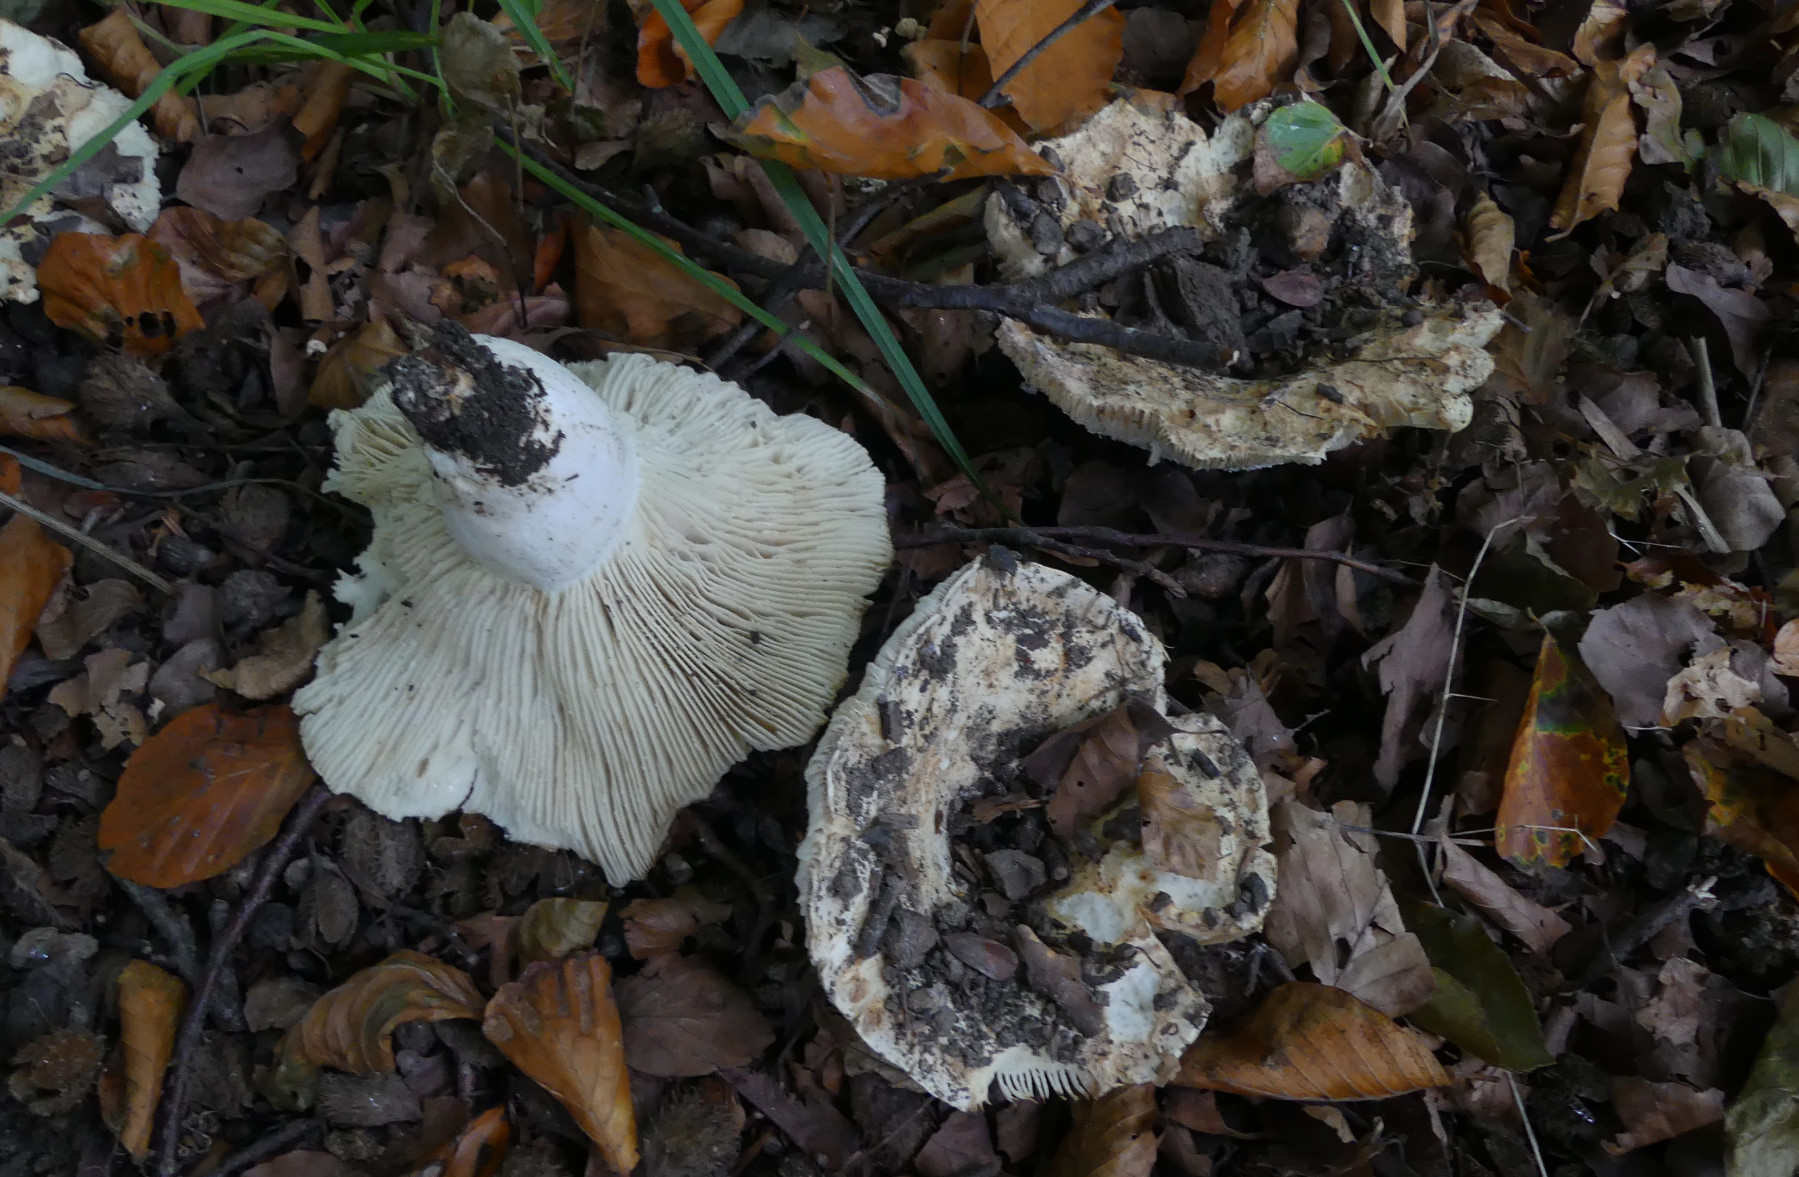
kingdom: Fungi
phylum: Basidiomycota
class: Agaricomycetes
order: Russulales
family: Russulaceae
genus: Russula
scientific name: Russula delica
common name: almindelig tragt-skørhat
